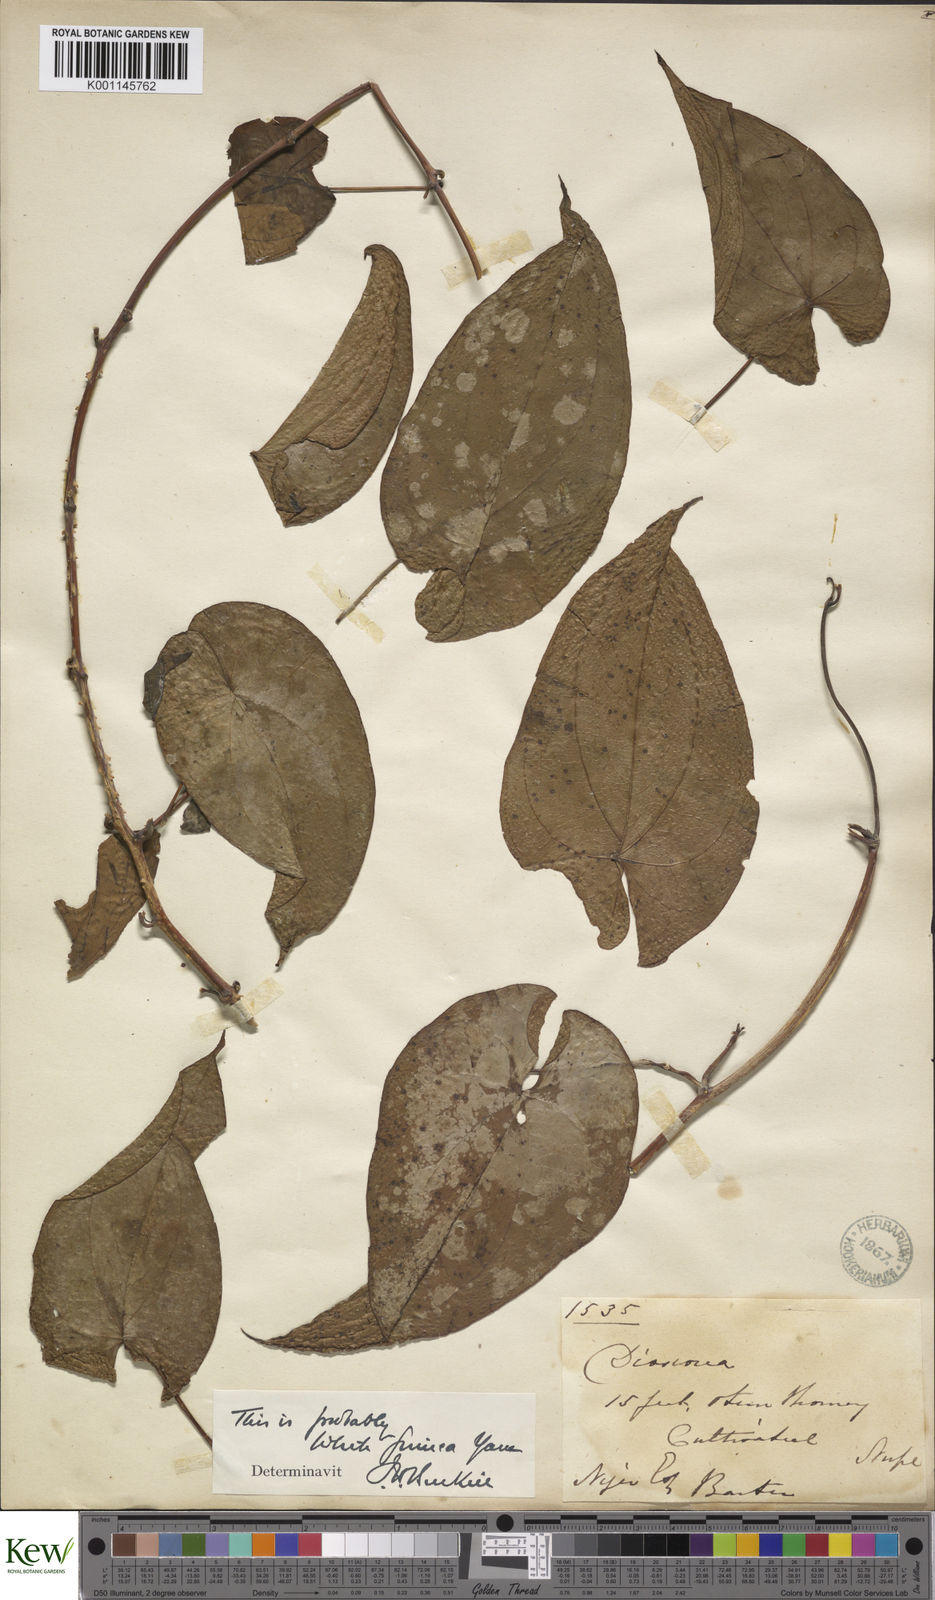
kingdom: Plantae
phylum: Tracheophyta
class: Liliopsida
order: Dioscoreales
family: Dioscoreaceae
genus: Dioscorea
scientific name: Dioscorea cayenensis
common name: Attoto yam
